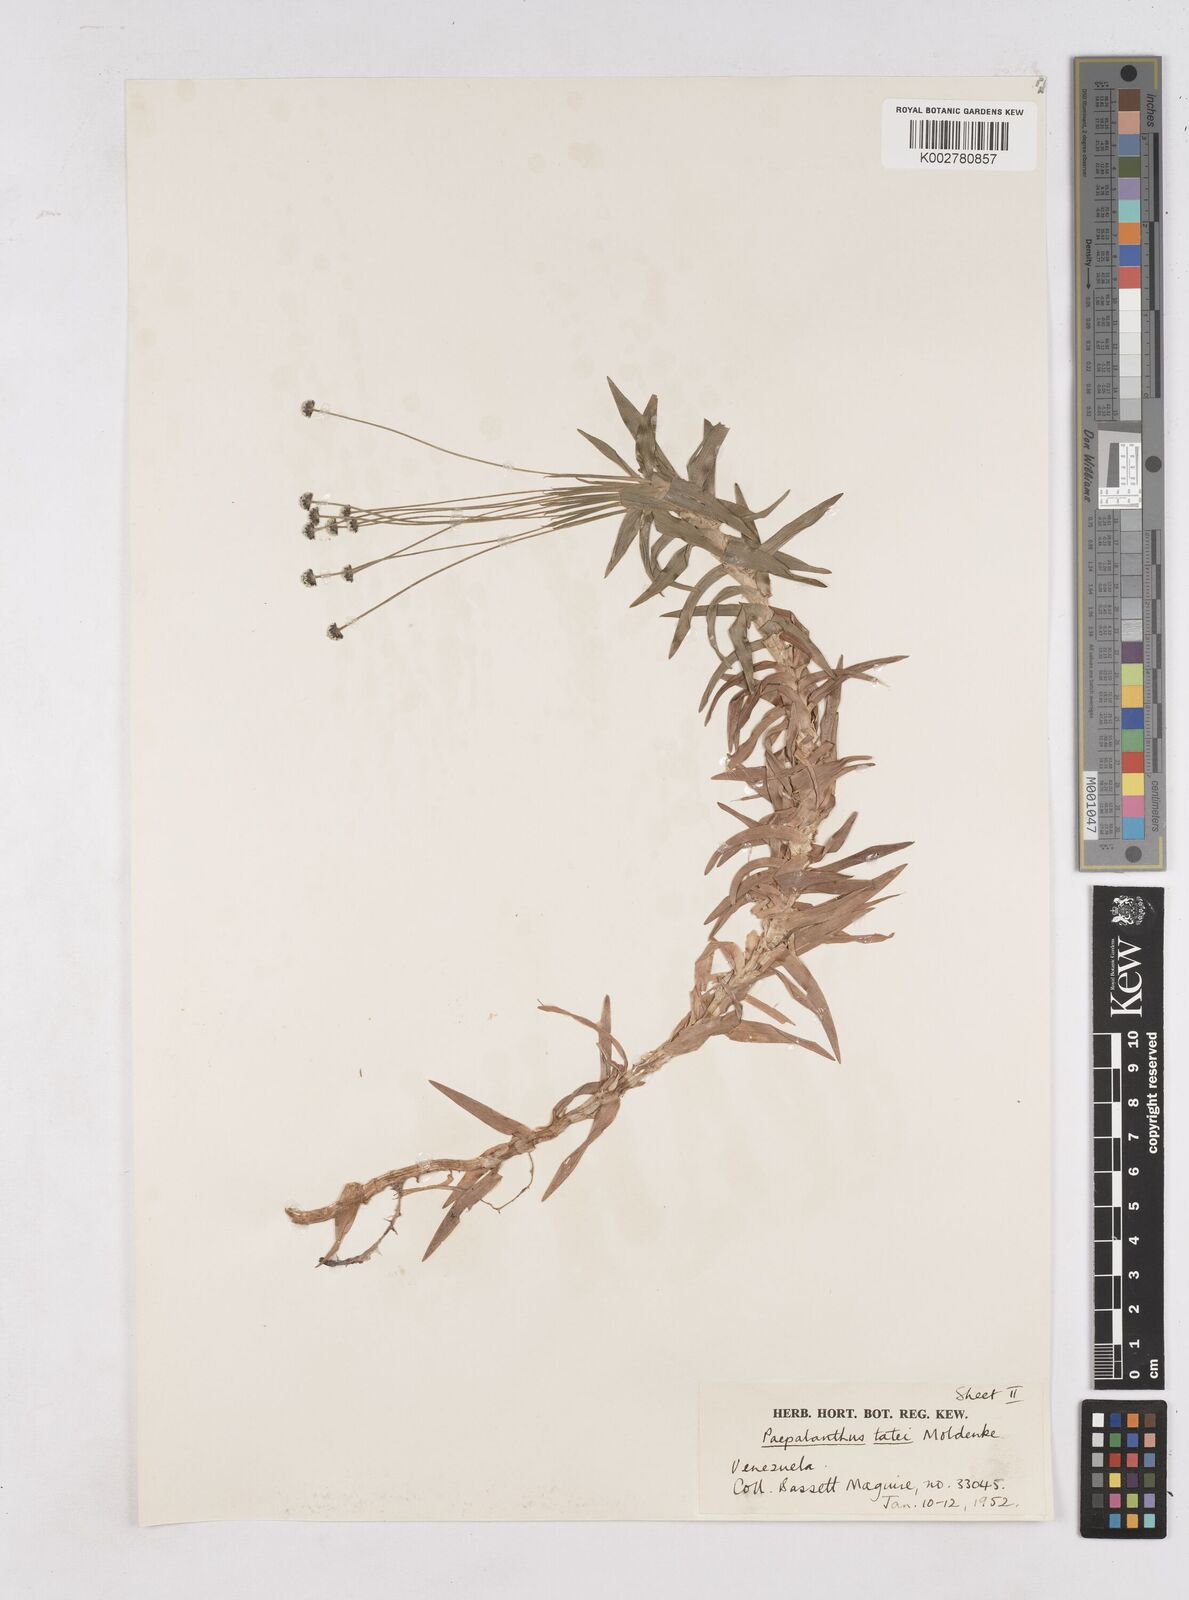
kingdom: Plantae
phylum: Tracheophyta
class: Liliopsida
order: Poales
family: Eriocaulaceae
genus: Paepalanthus
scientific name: Paepalanthus tortilis
